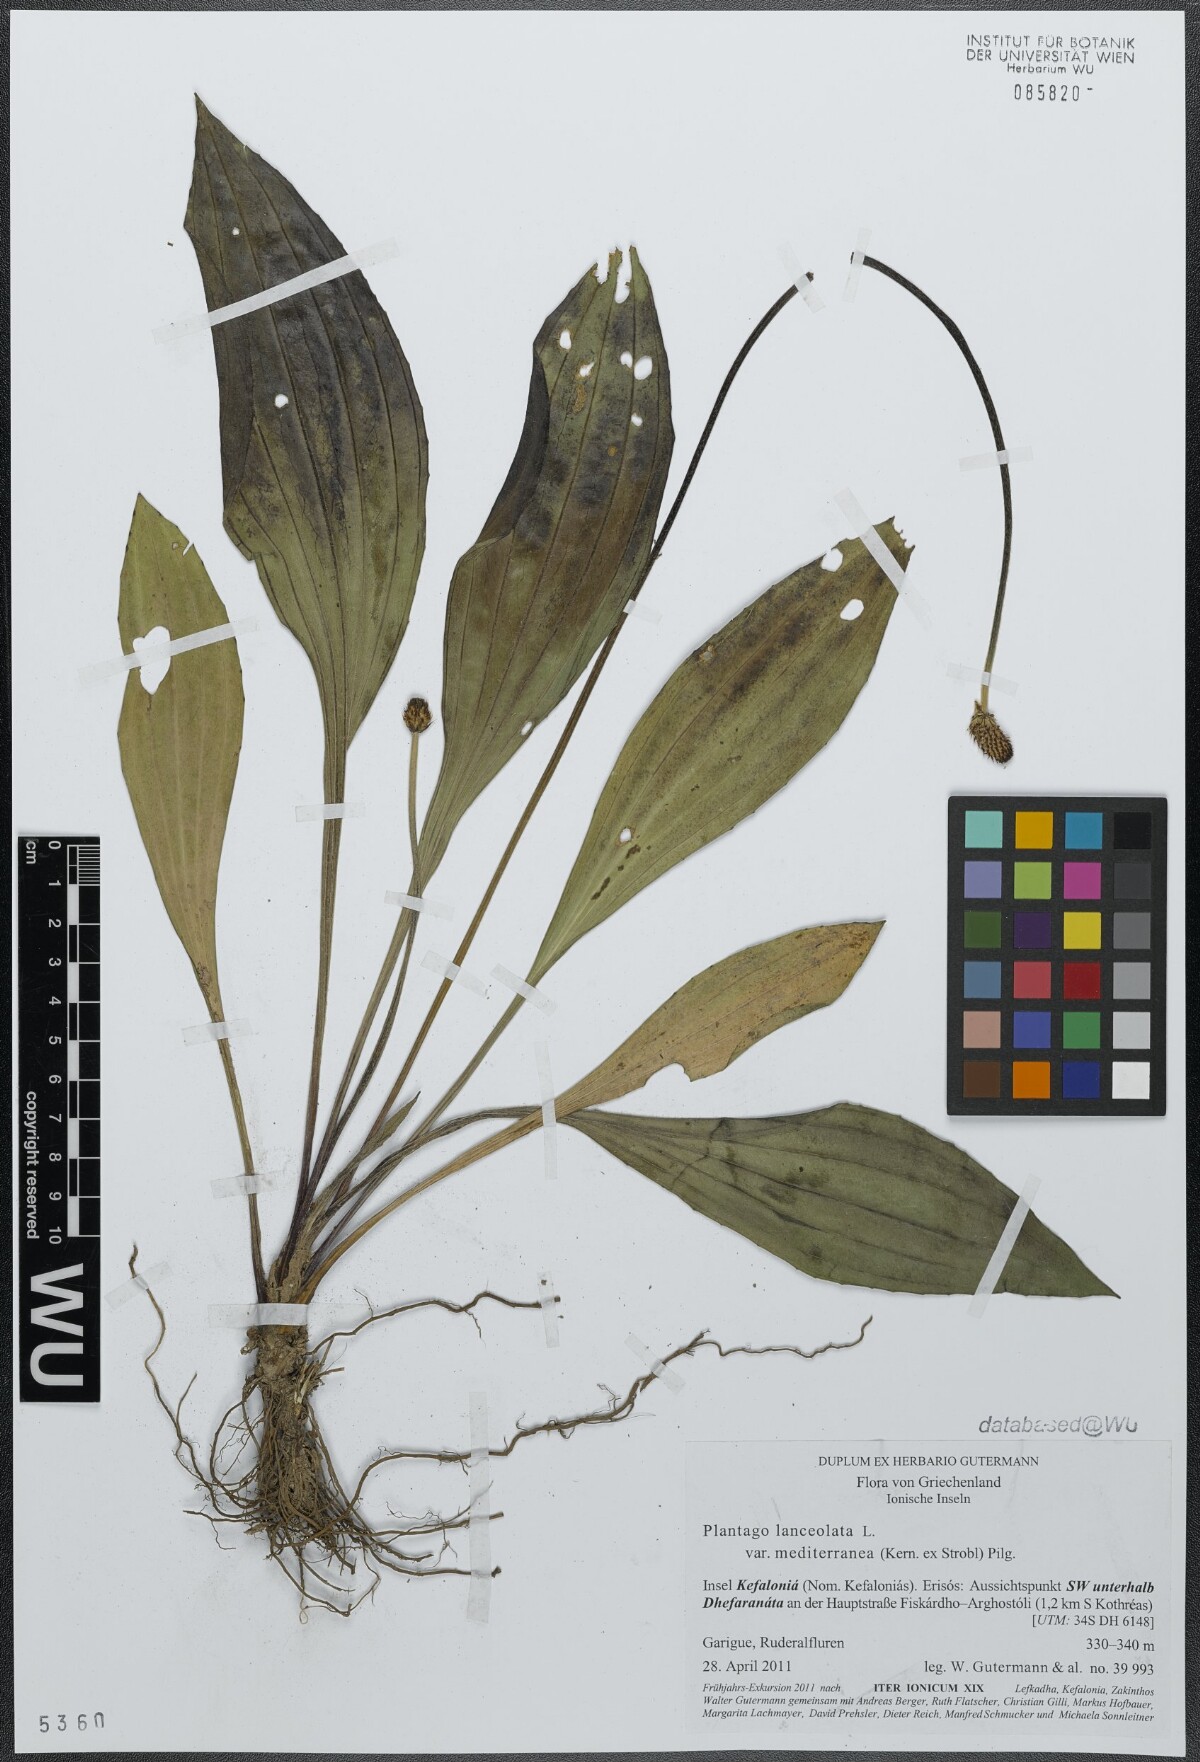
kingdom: Plantae
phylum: Tracheophyta
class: Magnoliopsida
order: Lamiales
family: Plantaginaceae
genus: Plantago
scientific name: Plantago lanceolata
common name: Ribwort plantain
